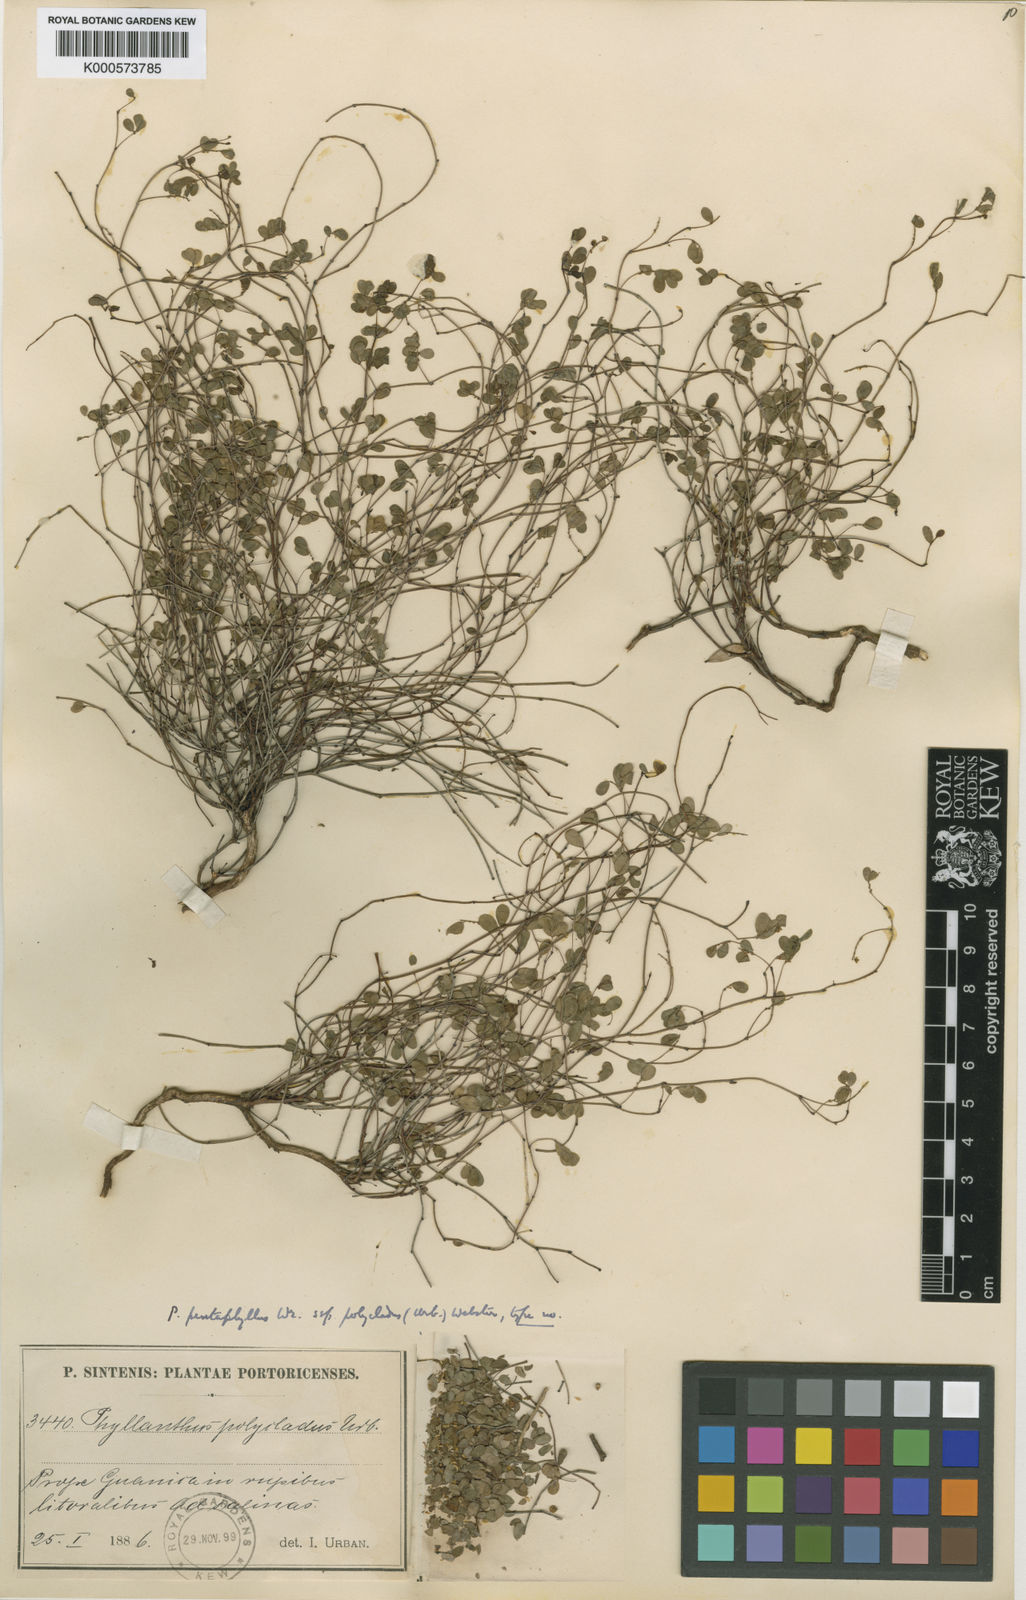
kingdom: Plantae
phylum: Tracheophyta
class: Magnoliopsida
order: Malpighiales
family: Phyllanthaceae
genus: Phyllanthus
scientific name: Phyllanthus pentaphyllus
